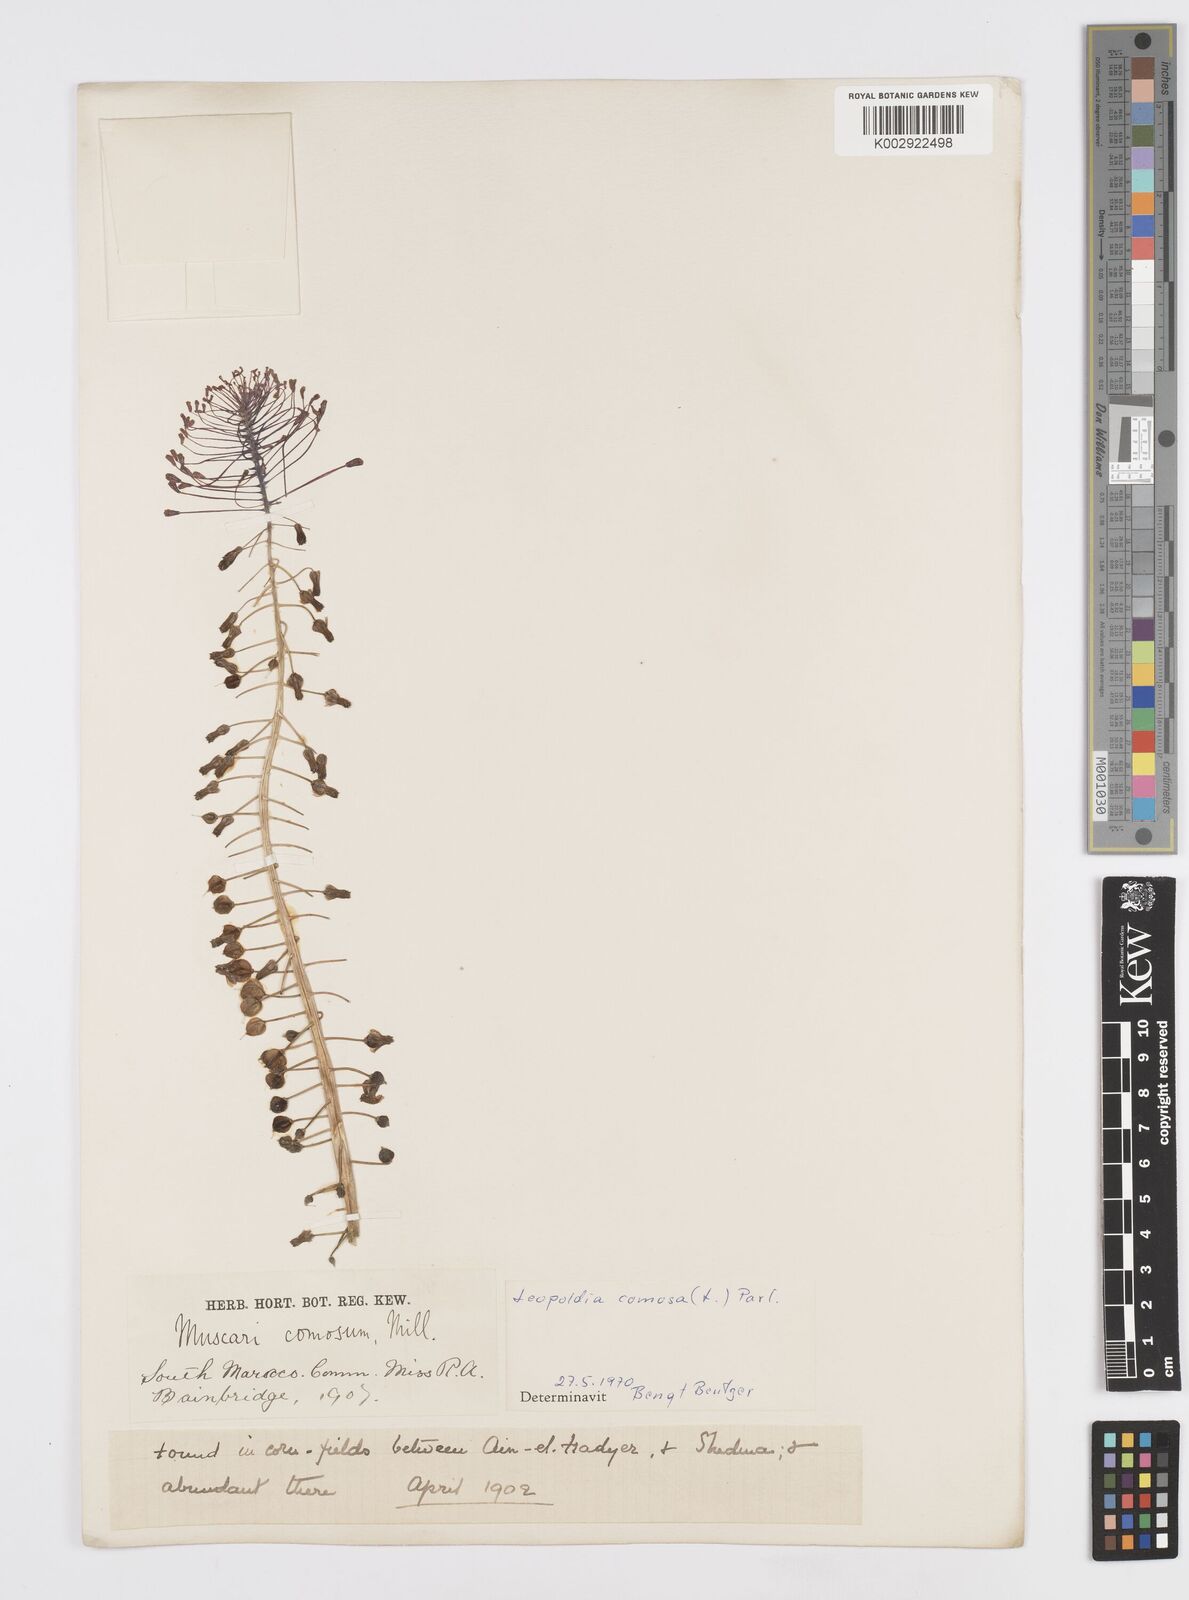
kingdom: Plantae
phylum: Tracheophyta
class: Liliopsida
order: Asparagales
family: Asparagaceae
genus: Muscari
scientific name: Muscari comosum
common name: Tassel hyacinth
